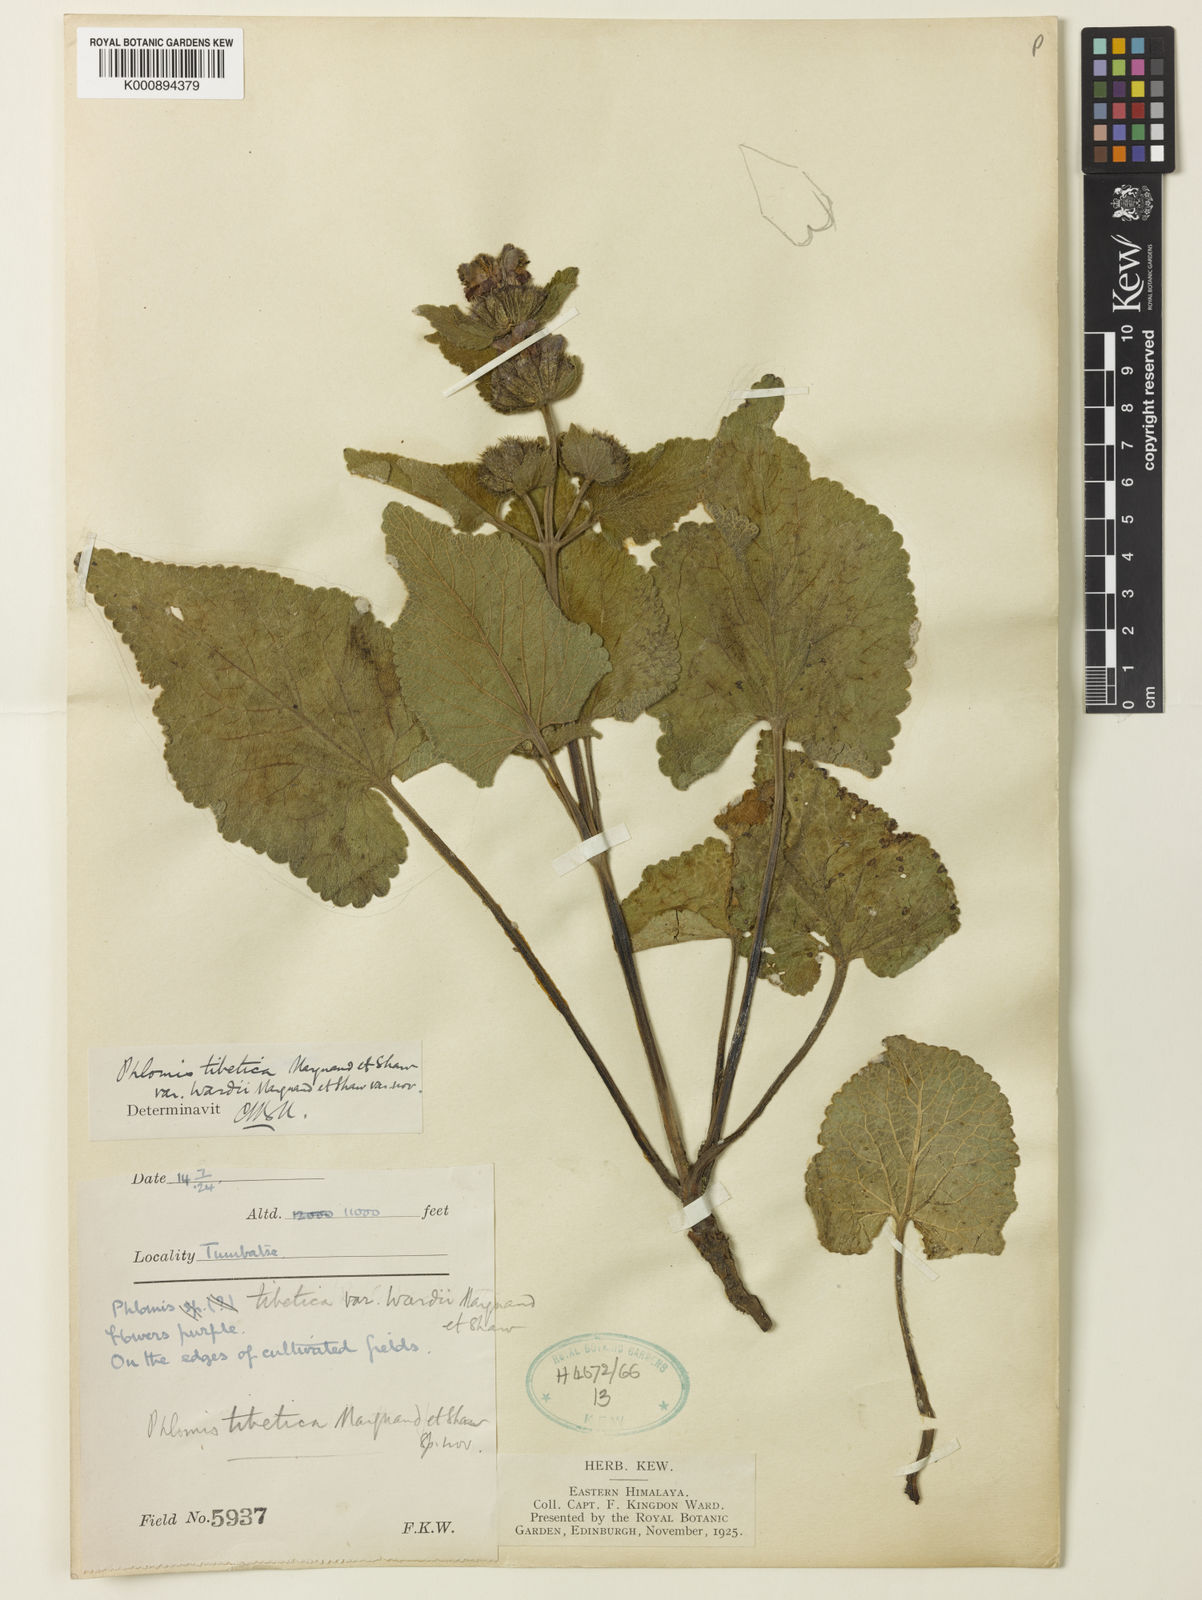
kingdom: Plantae
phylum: Tracheophyta
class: Magnoliopsida
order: Lamiales
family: Lamiaceae
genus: Phlomoides
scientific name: Phlomoides tibetica
